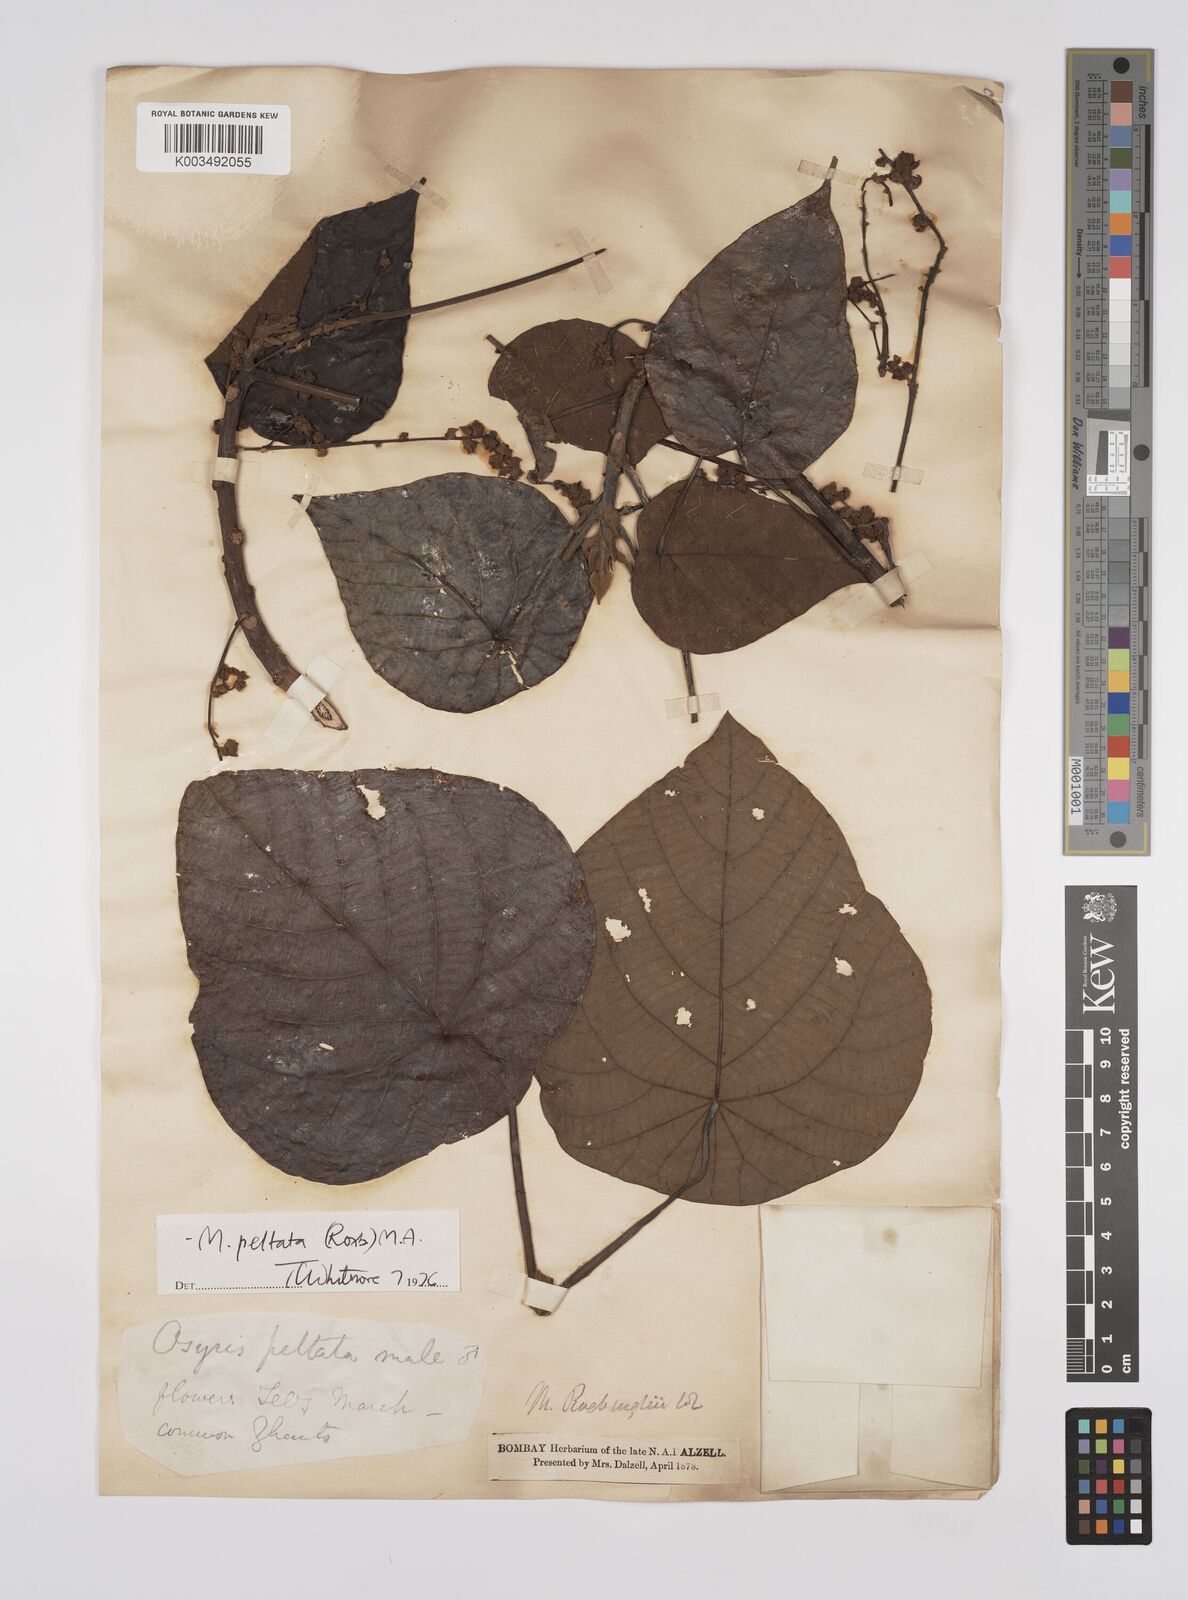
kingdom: Plantae
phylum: Tracheophyta
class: Magnoliopsida
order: Malpighiales
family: Euphorbiaceae
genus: Macaranga
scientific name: Macaranga peltata
